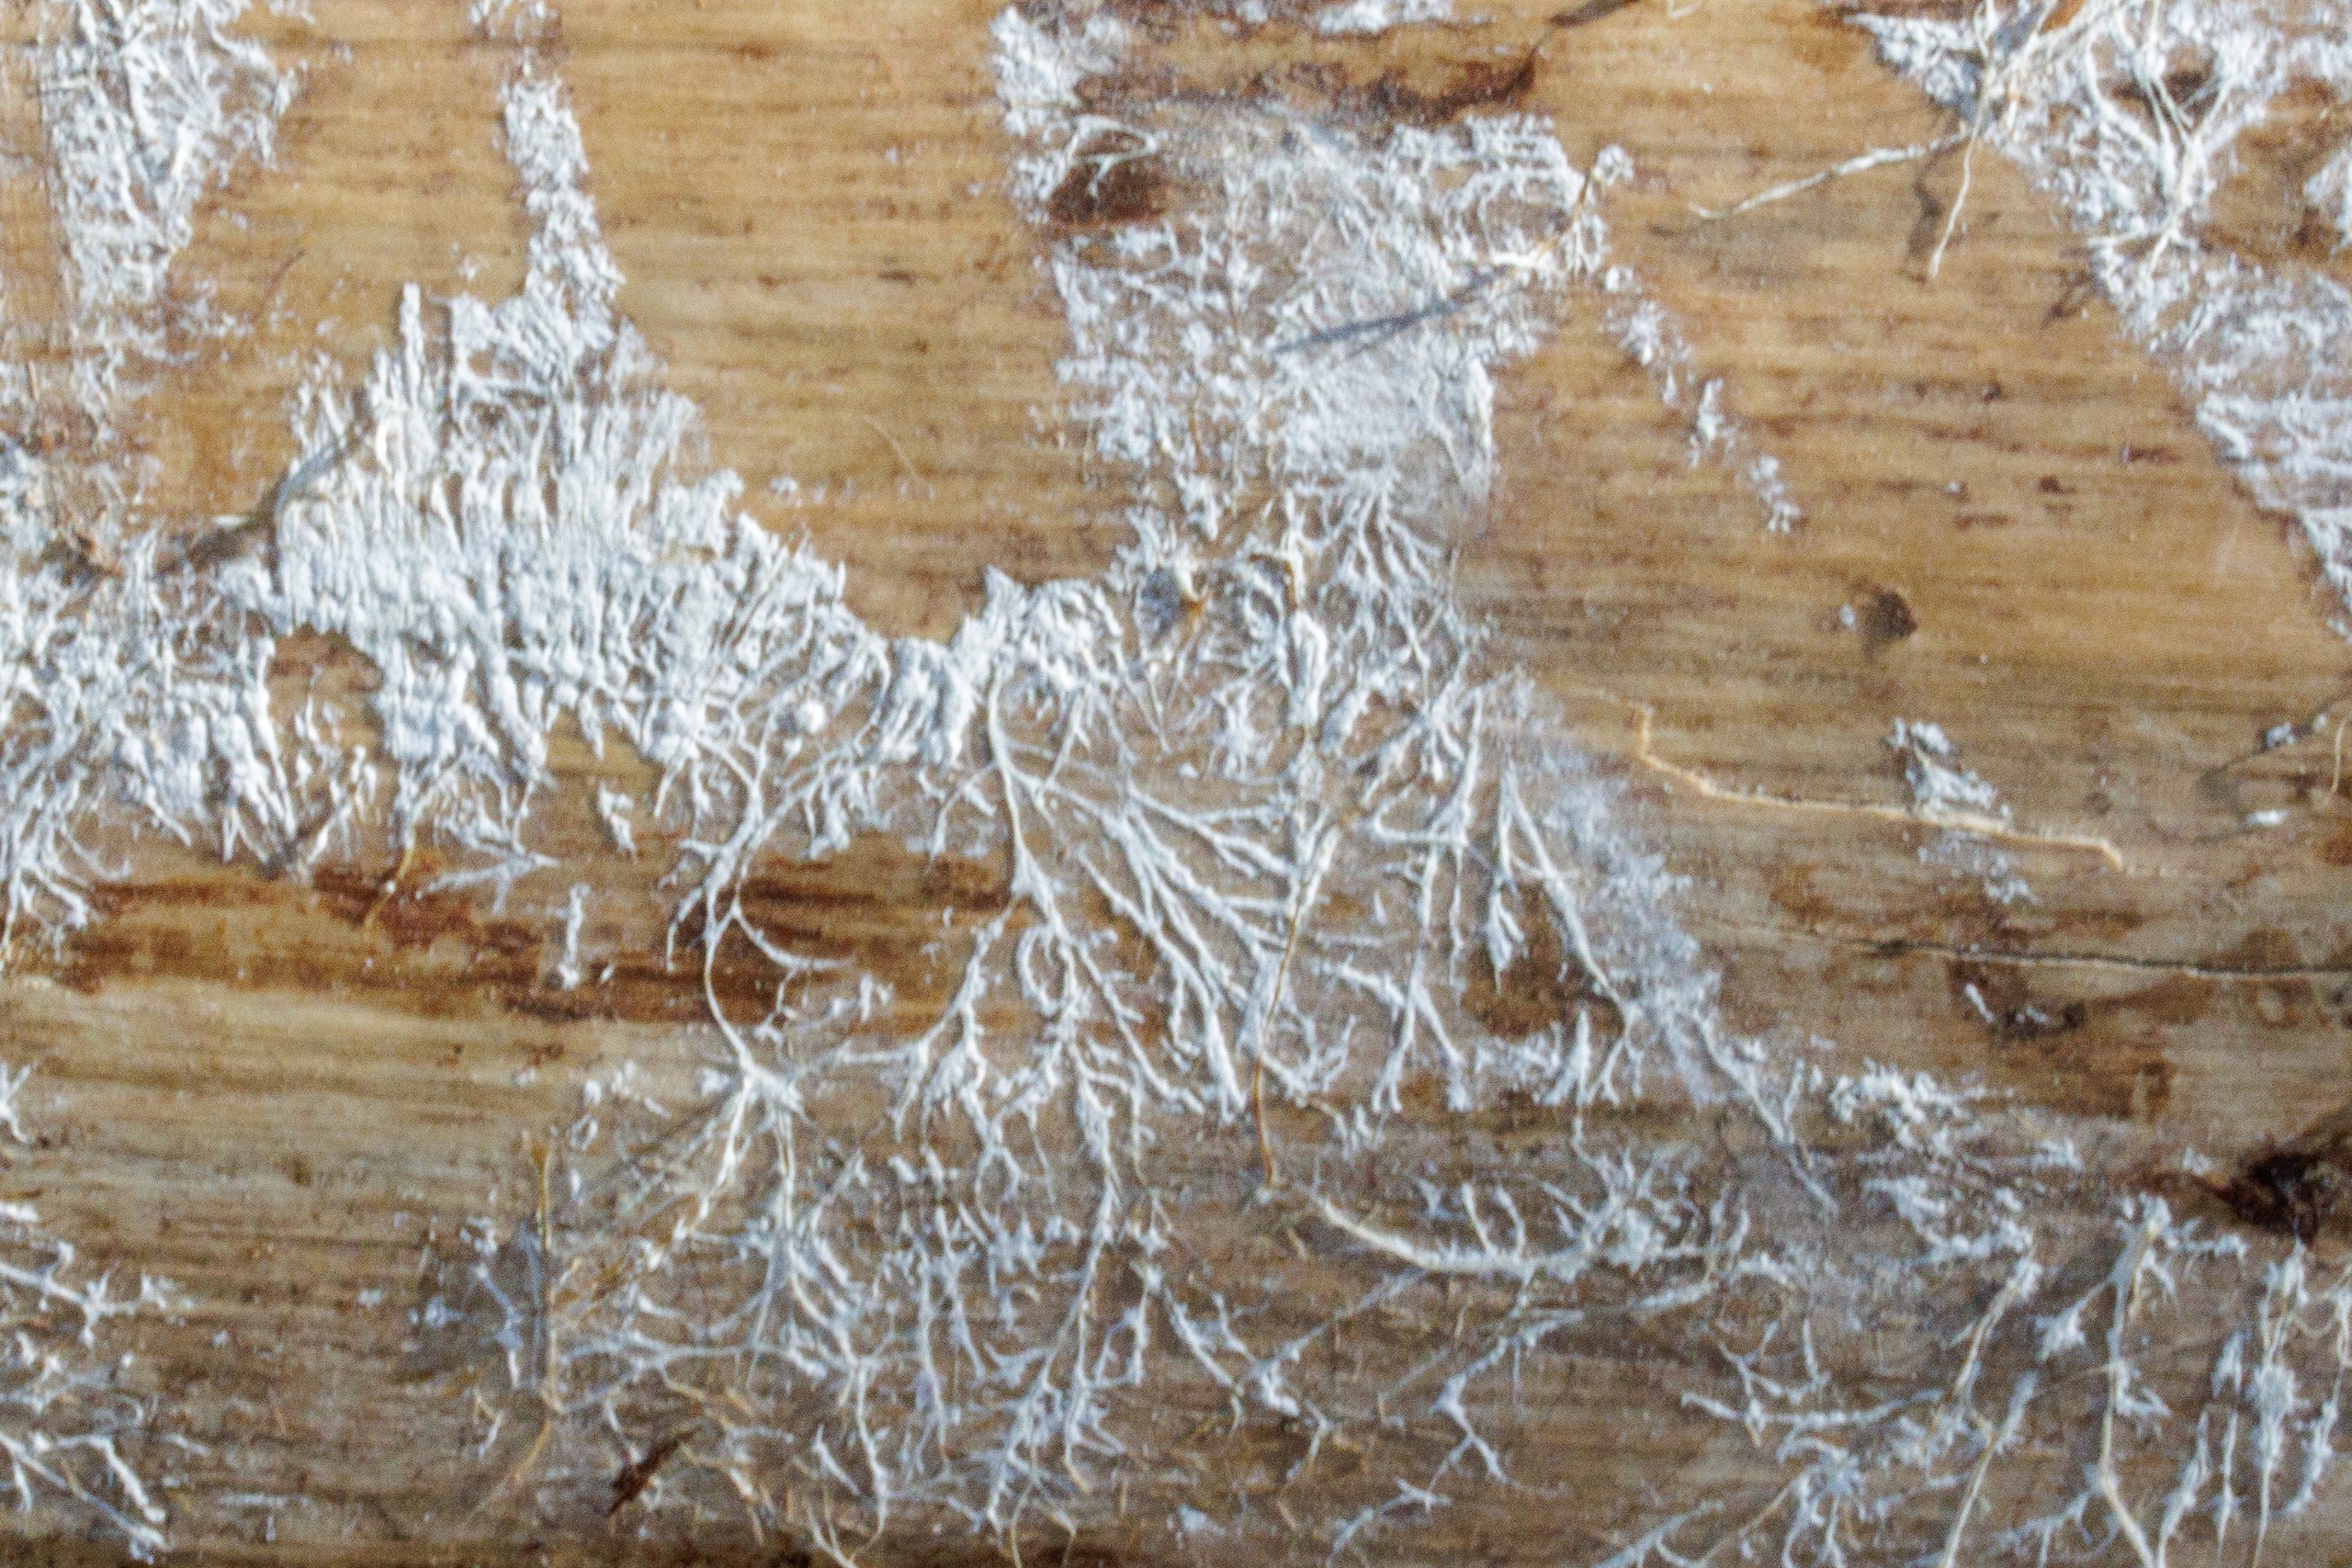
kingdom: Fungi
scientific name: Fungi
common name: Svamperiget
